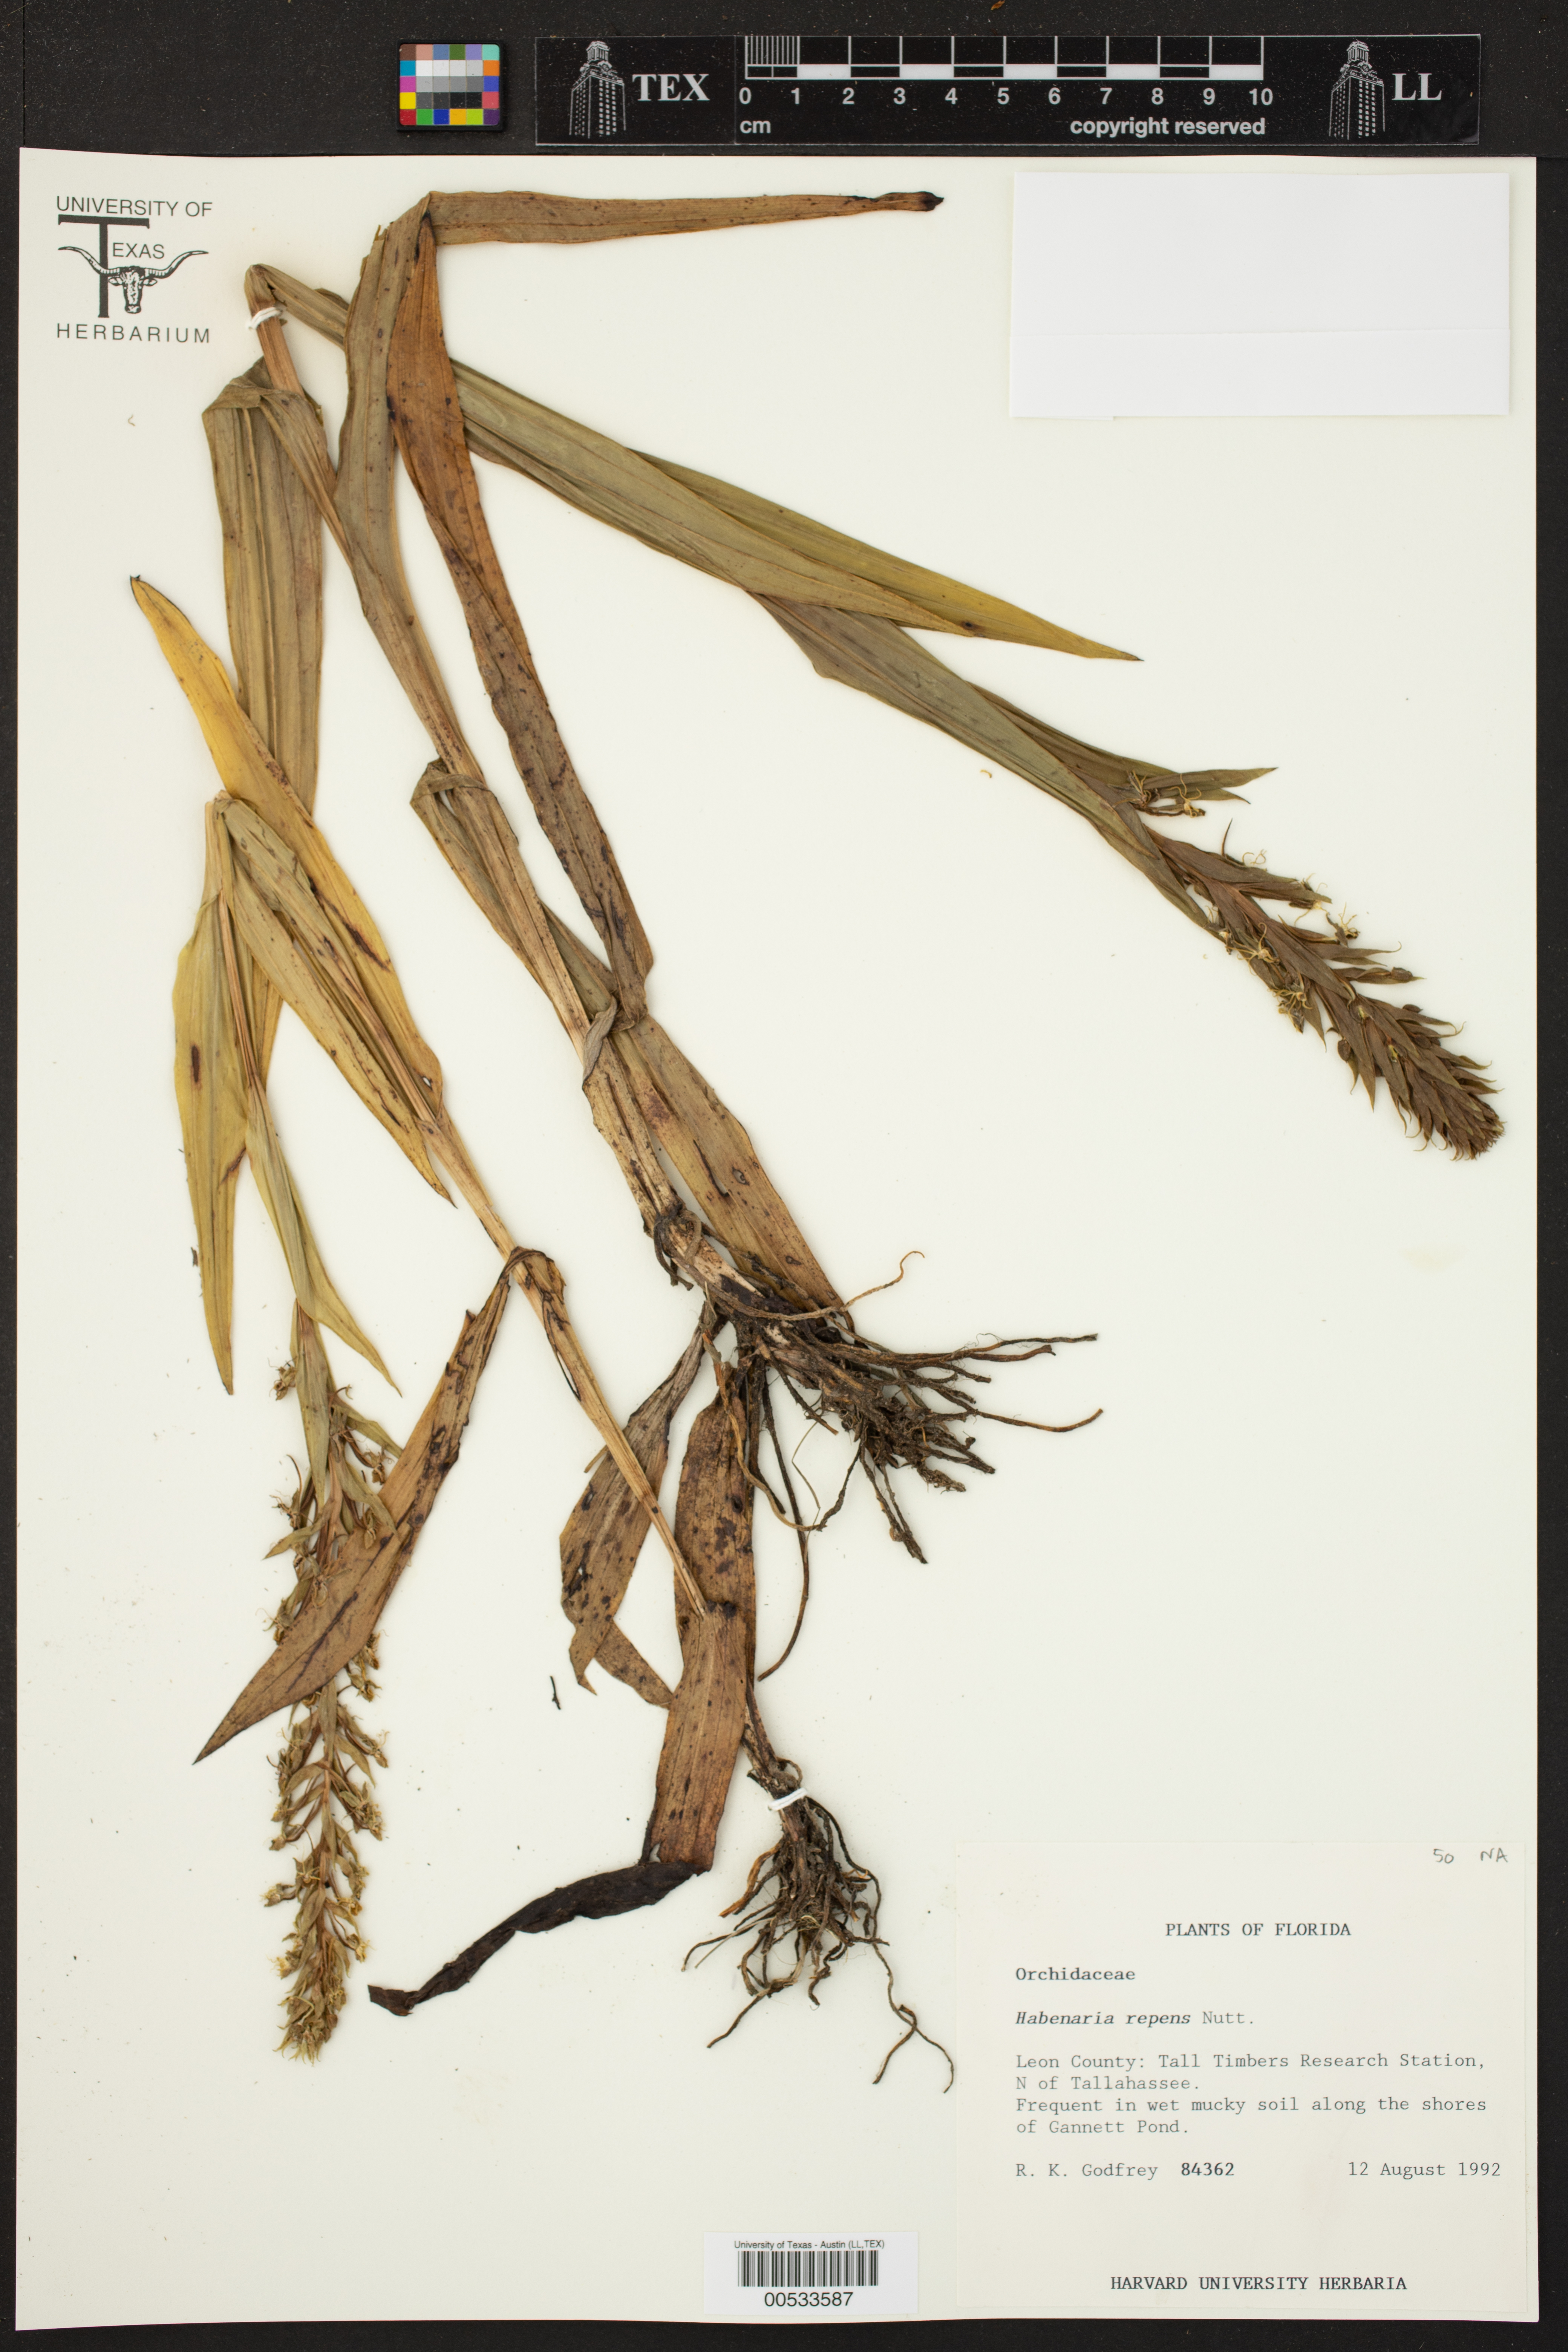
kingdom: Plantae
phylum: Tracheophyta
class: Liliopsida
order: Asparagales
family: Orchidaceae
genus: Habenaria
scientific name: Habenaria repens
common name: Water orchid
